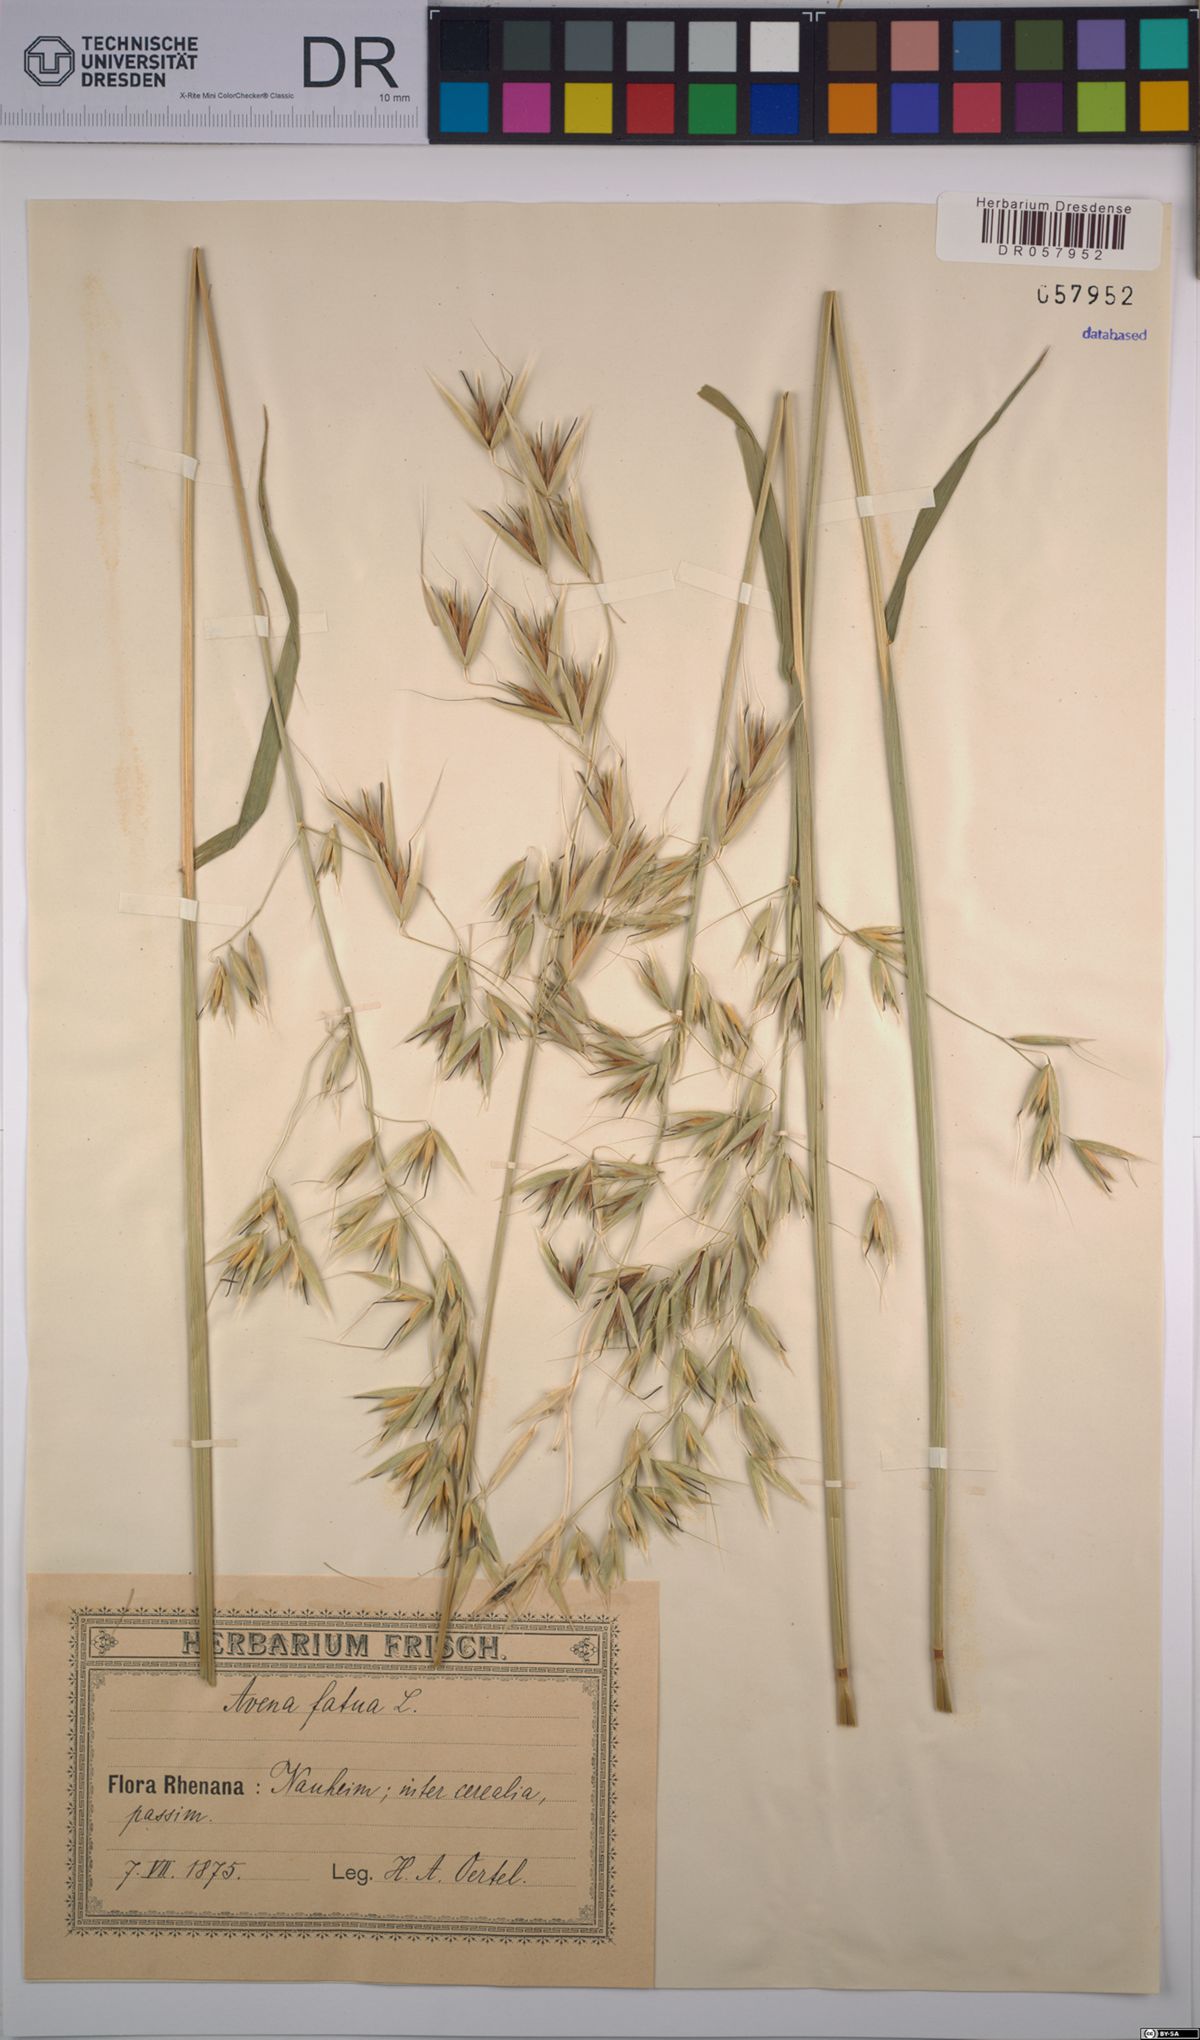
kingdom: Plantae
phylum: Tracheophyta
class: Liliopsida
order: Poales
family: Poaceae
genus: Avena
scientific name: Avena fatua
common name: Wild oat
